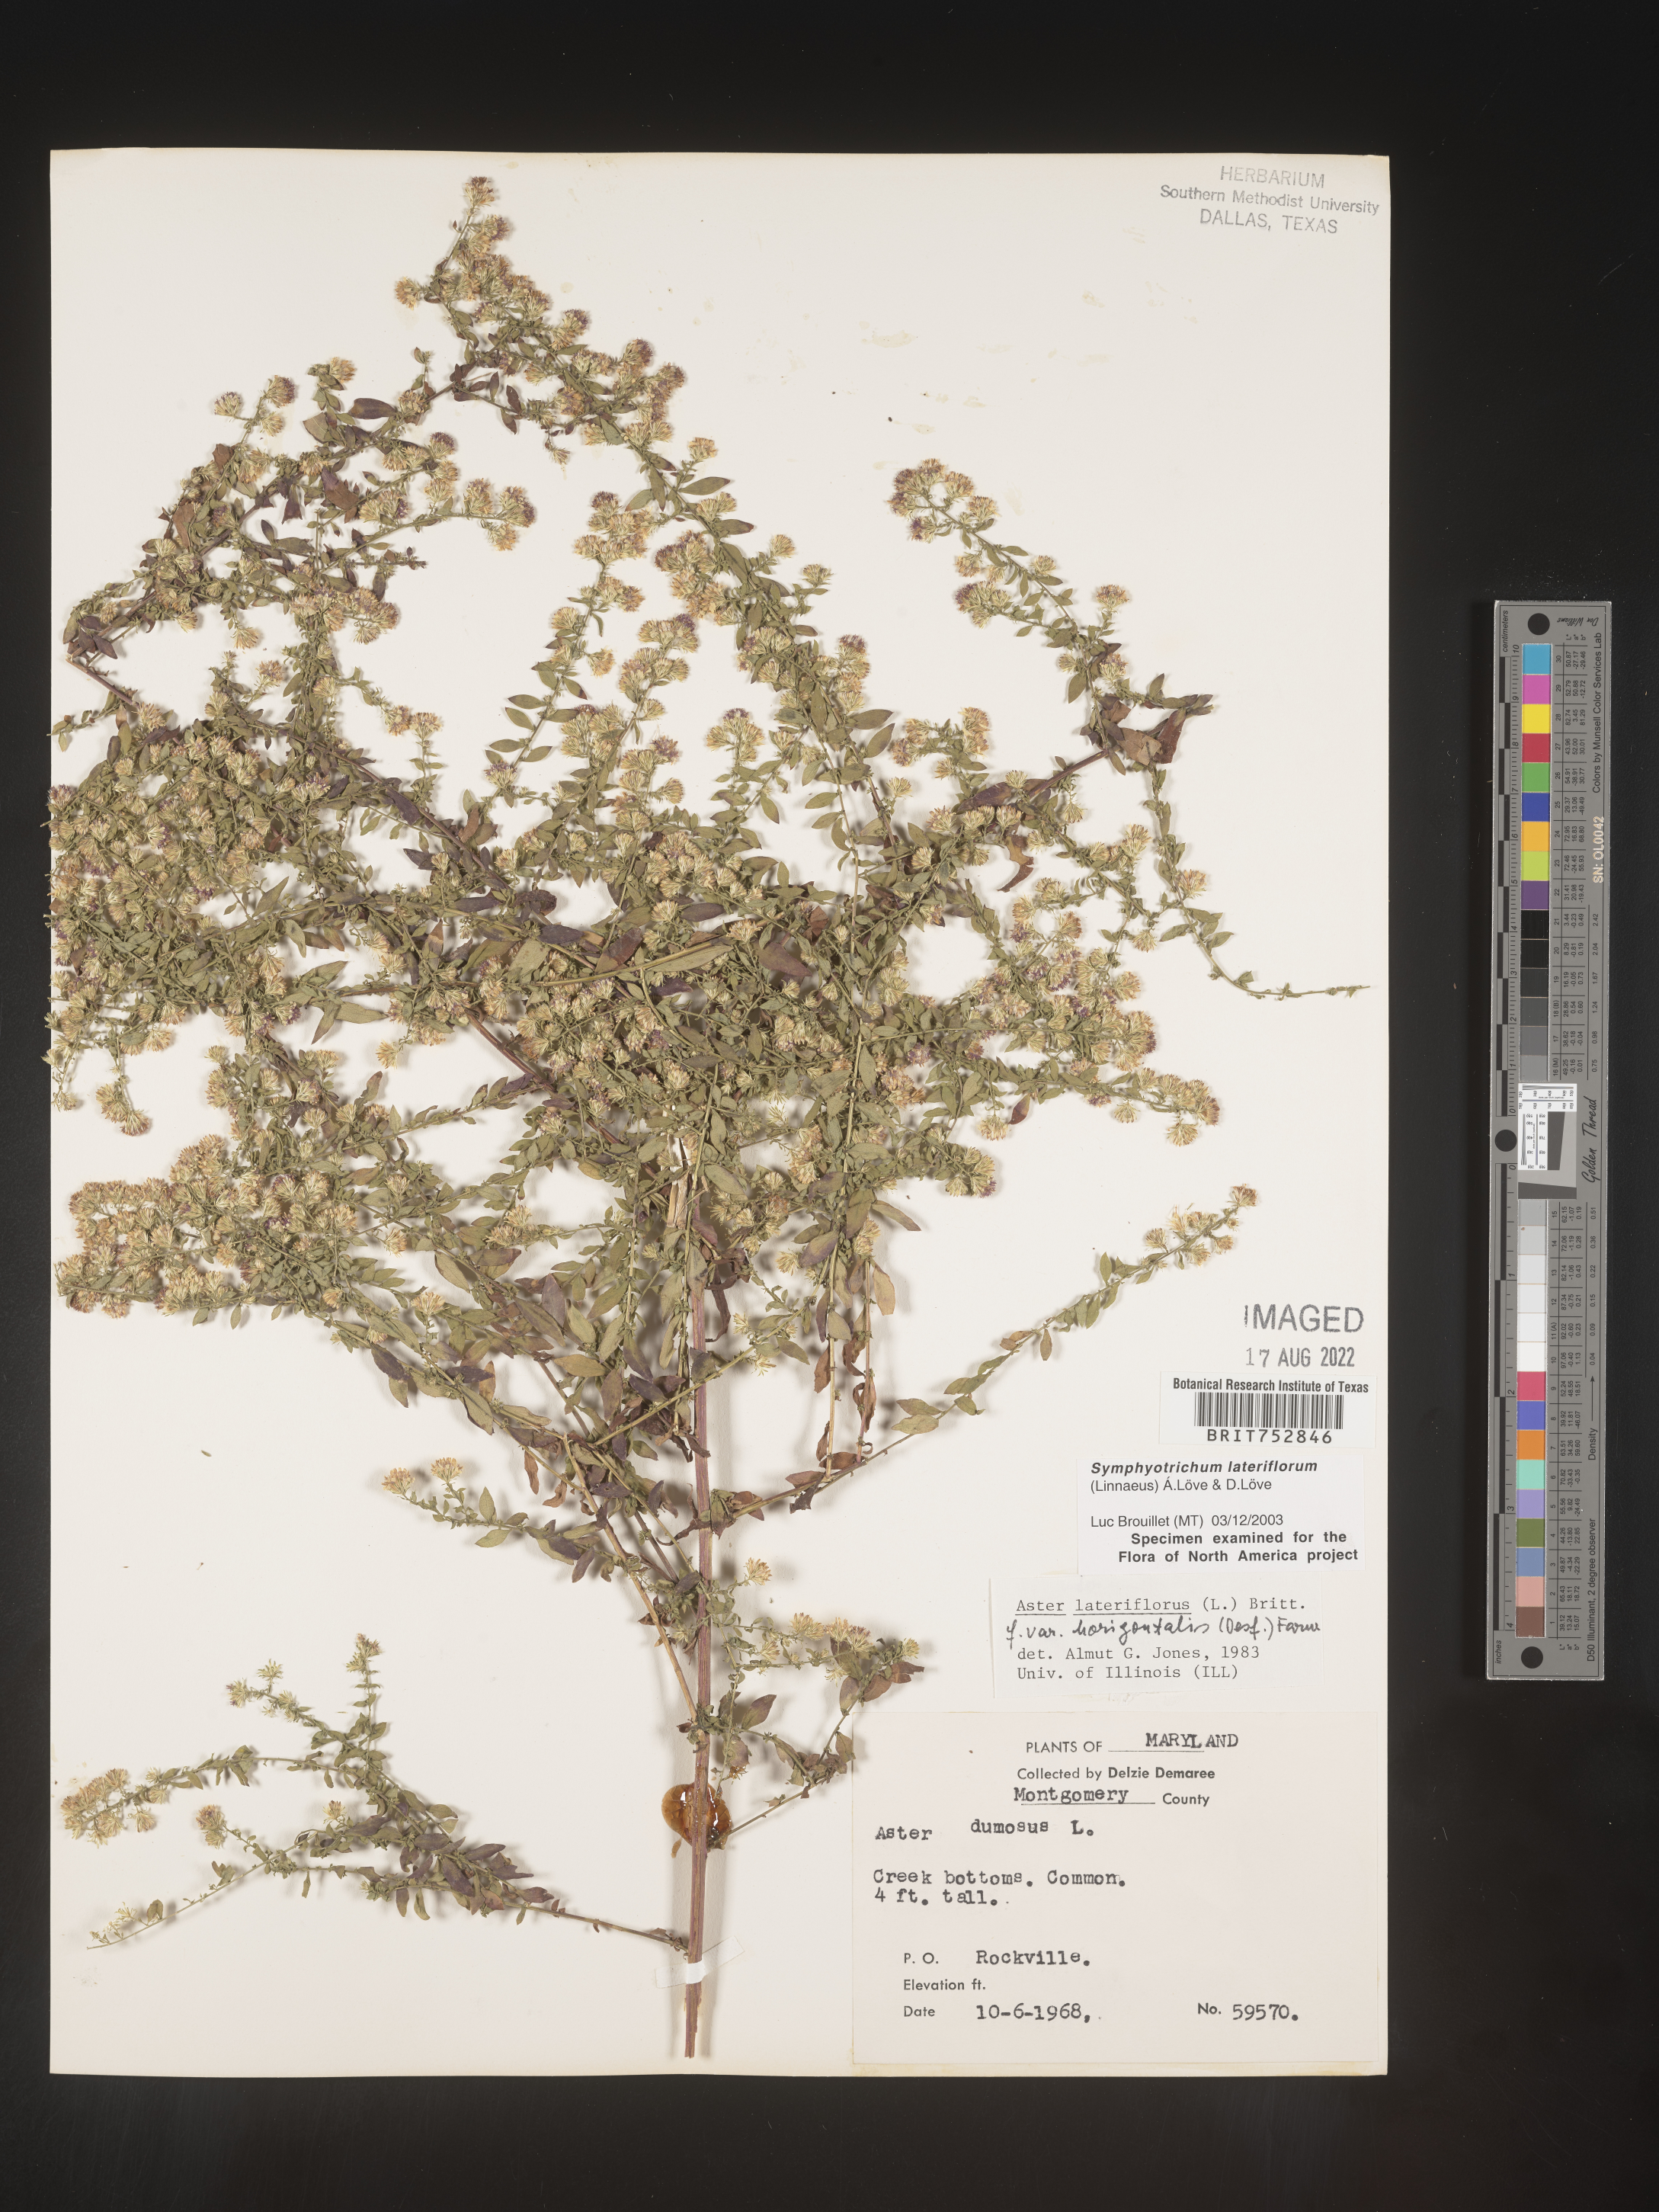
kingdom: Plantae
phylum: Tracheophyta
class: Magnoliopsida
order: Asterales
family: Asteraceae
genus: Symphyotrichum
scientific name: Symphyotrichum lateriflorum
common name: Calico aster
